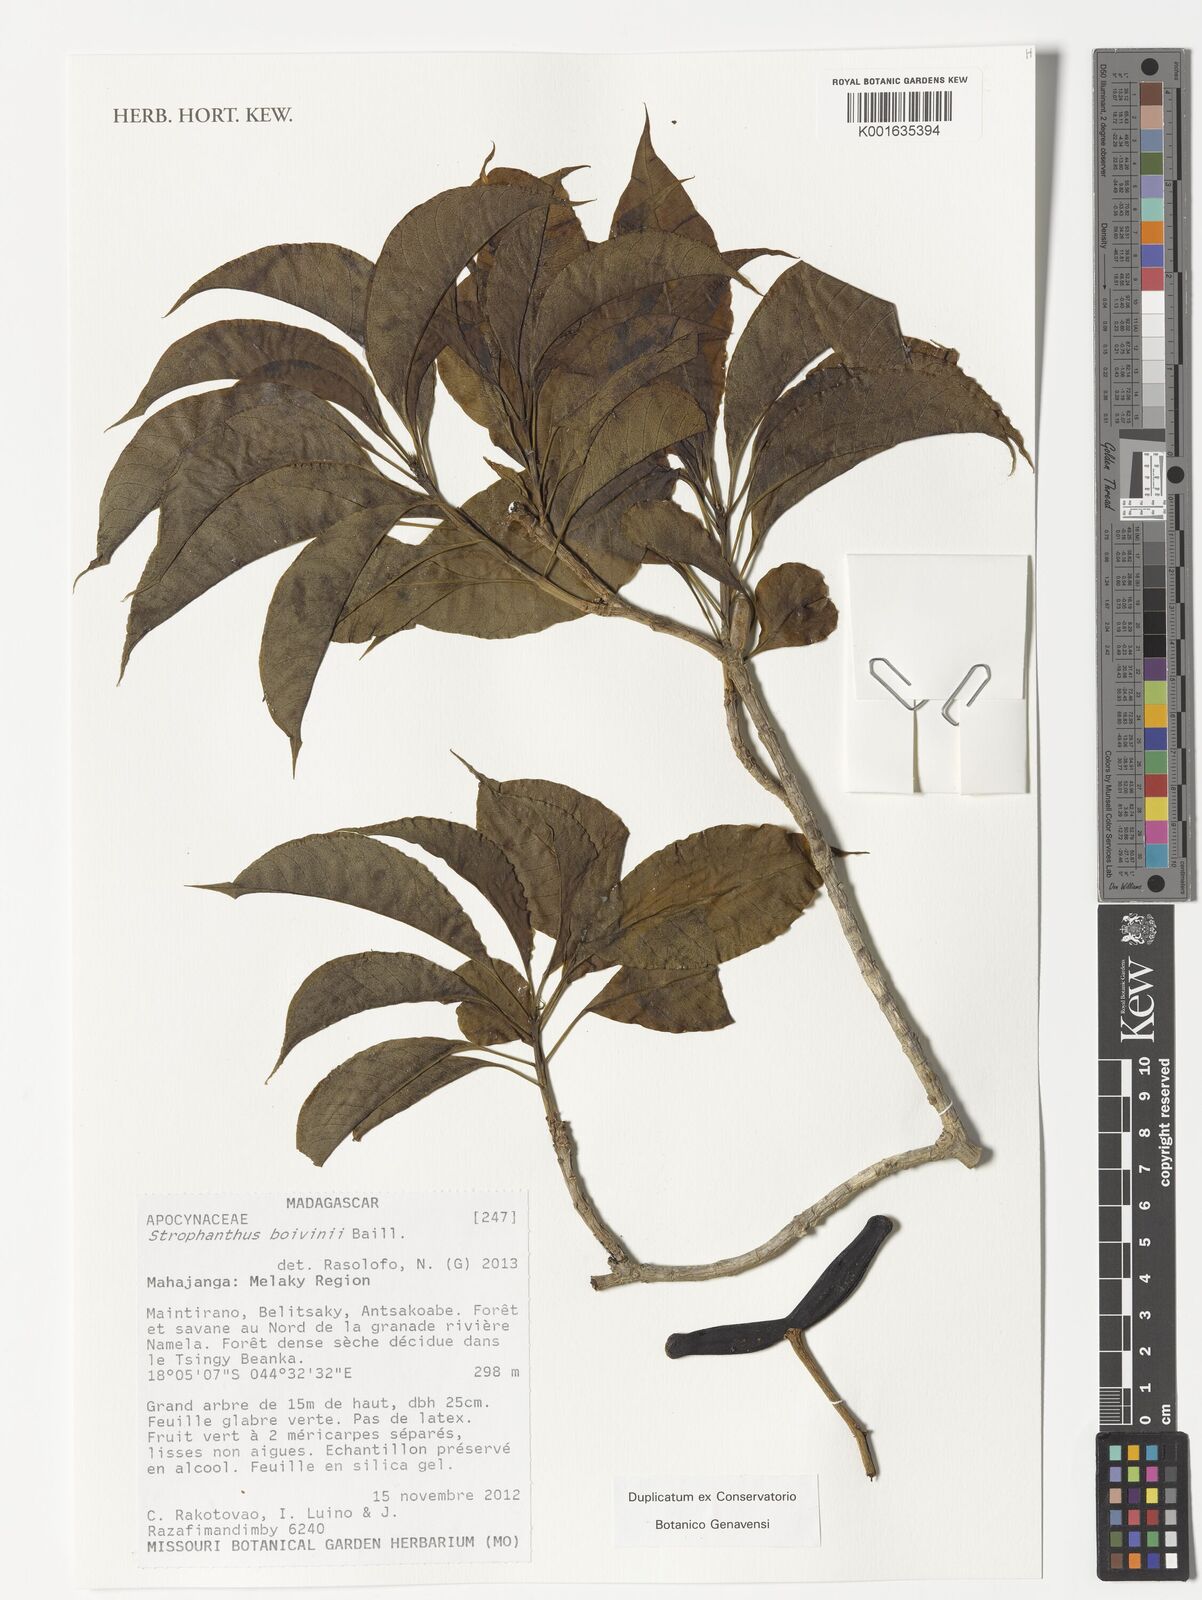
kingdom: Plantae
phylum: Tracheophyta
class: Magnoliopsida
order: Gentianales
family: Apocynaceae
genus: Strophanthus
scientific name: Strophanthus boivinii
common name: Wood-shaving-flower
